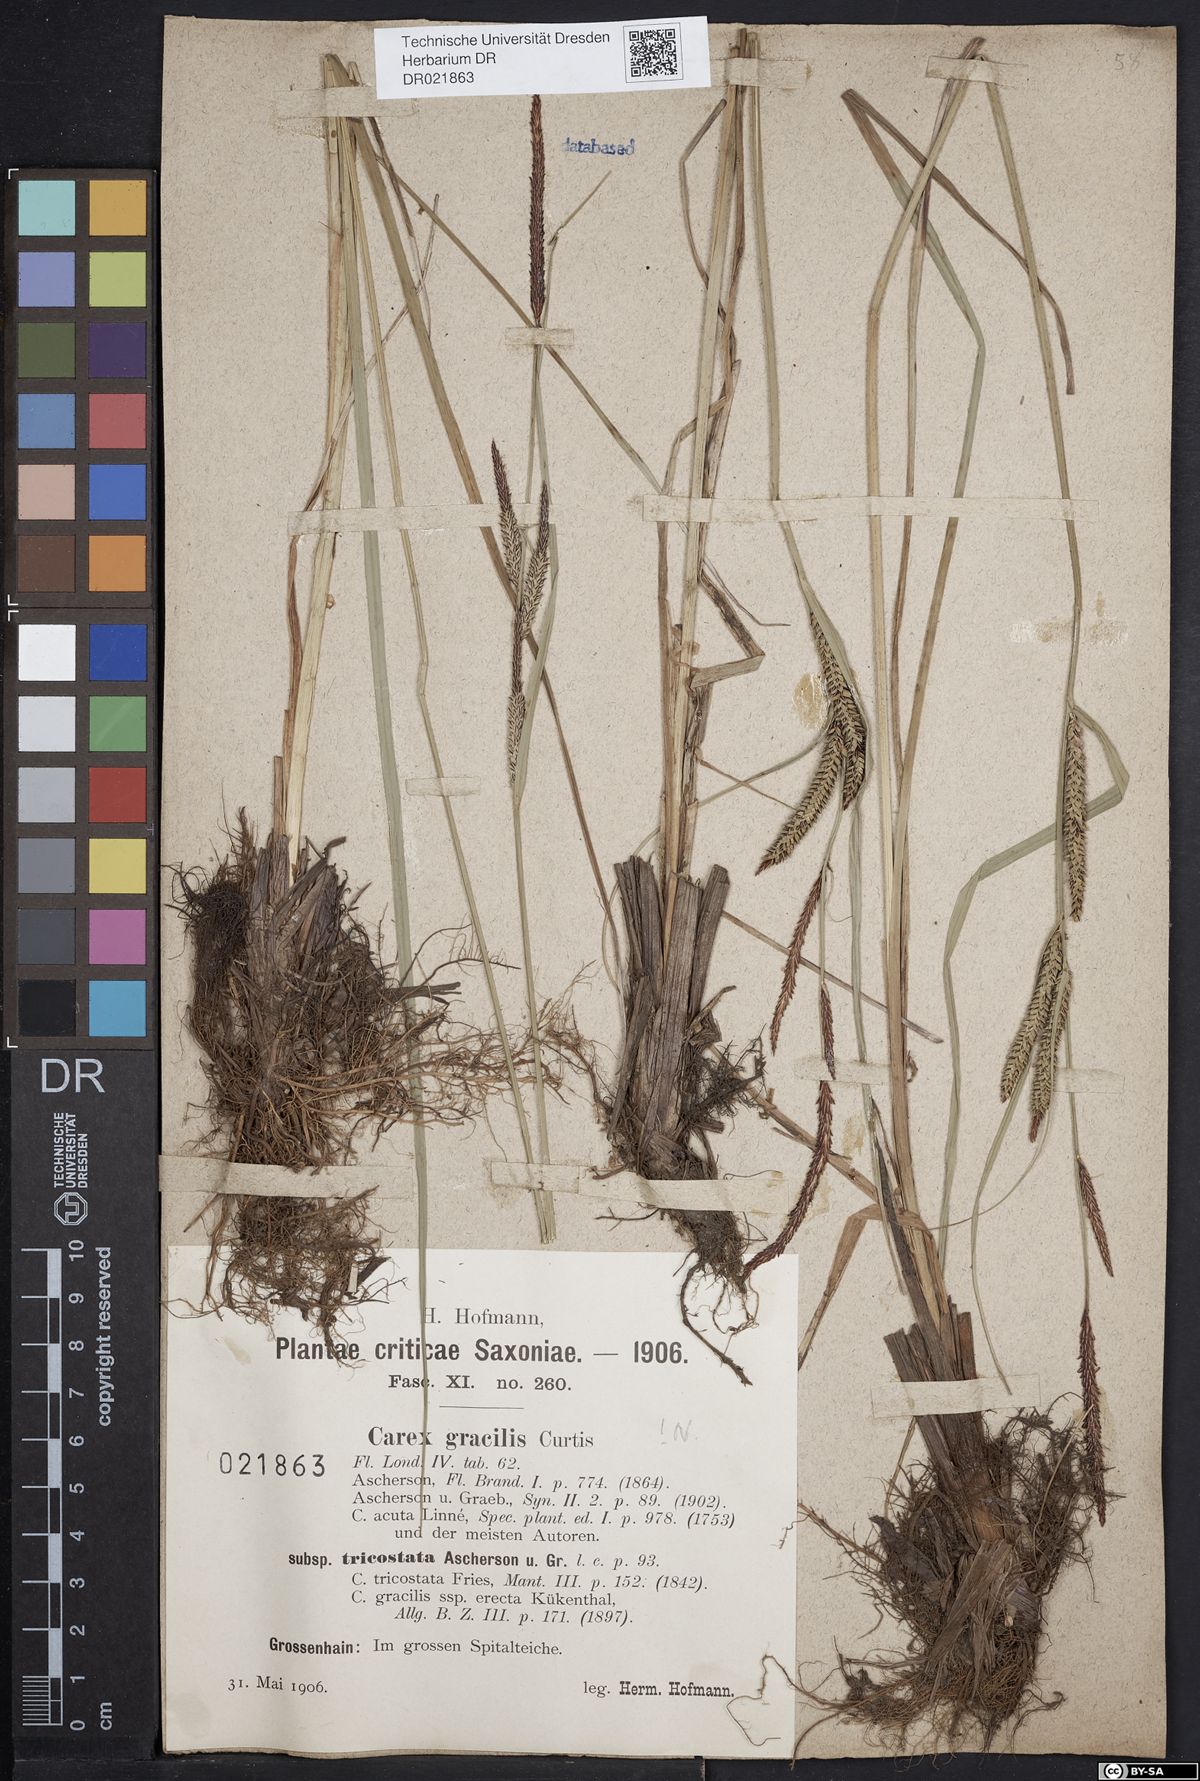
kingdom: Plantae
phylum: Tracheophyta
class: Liliopsida
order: Poales
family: Cyperaceae
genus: Carex
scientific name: Carex acuta
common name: Slender tufted-sedge
